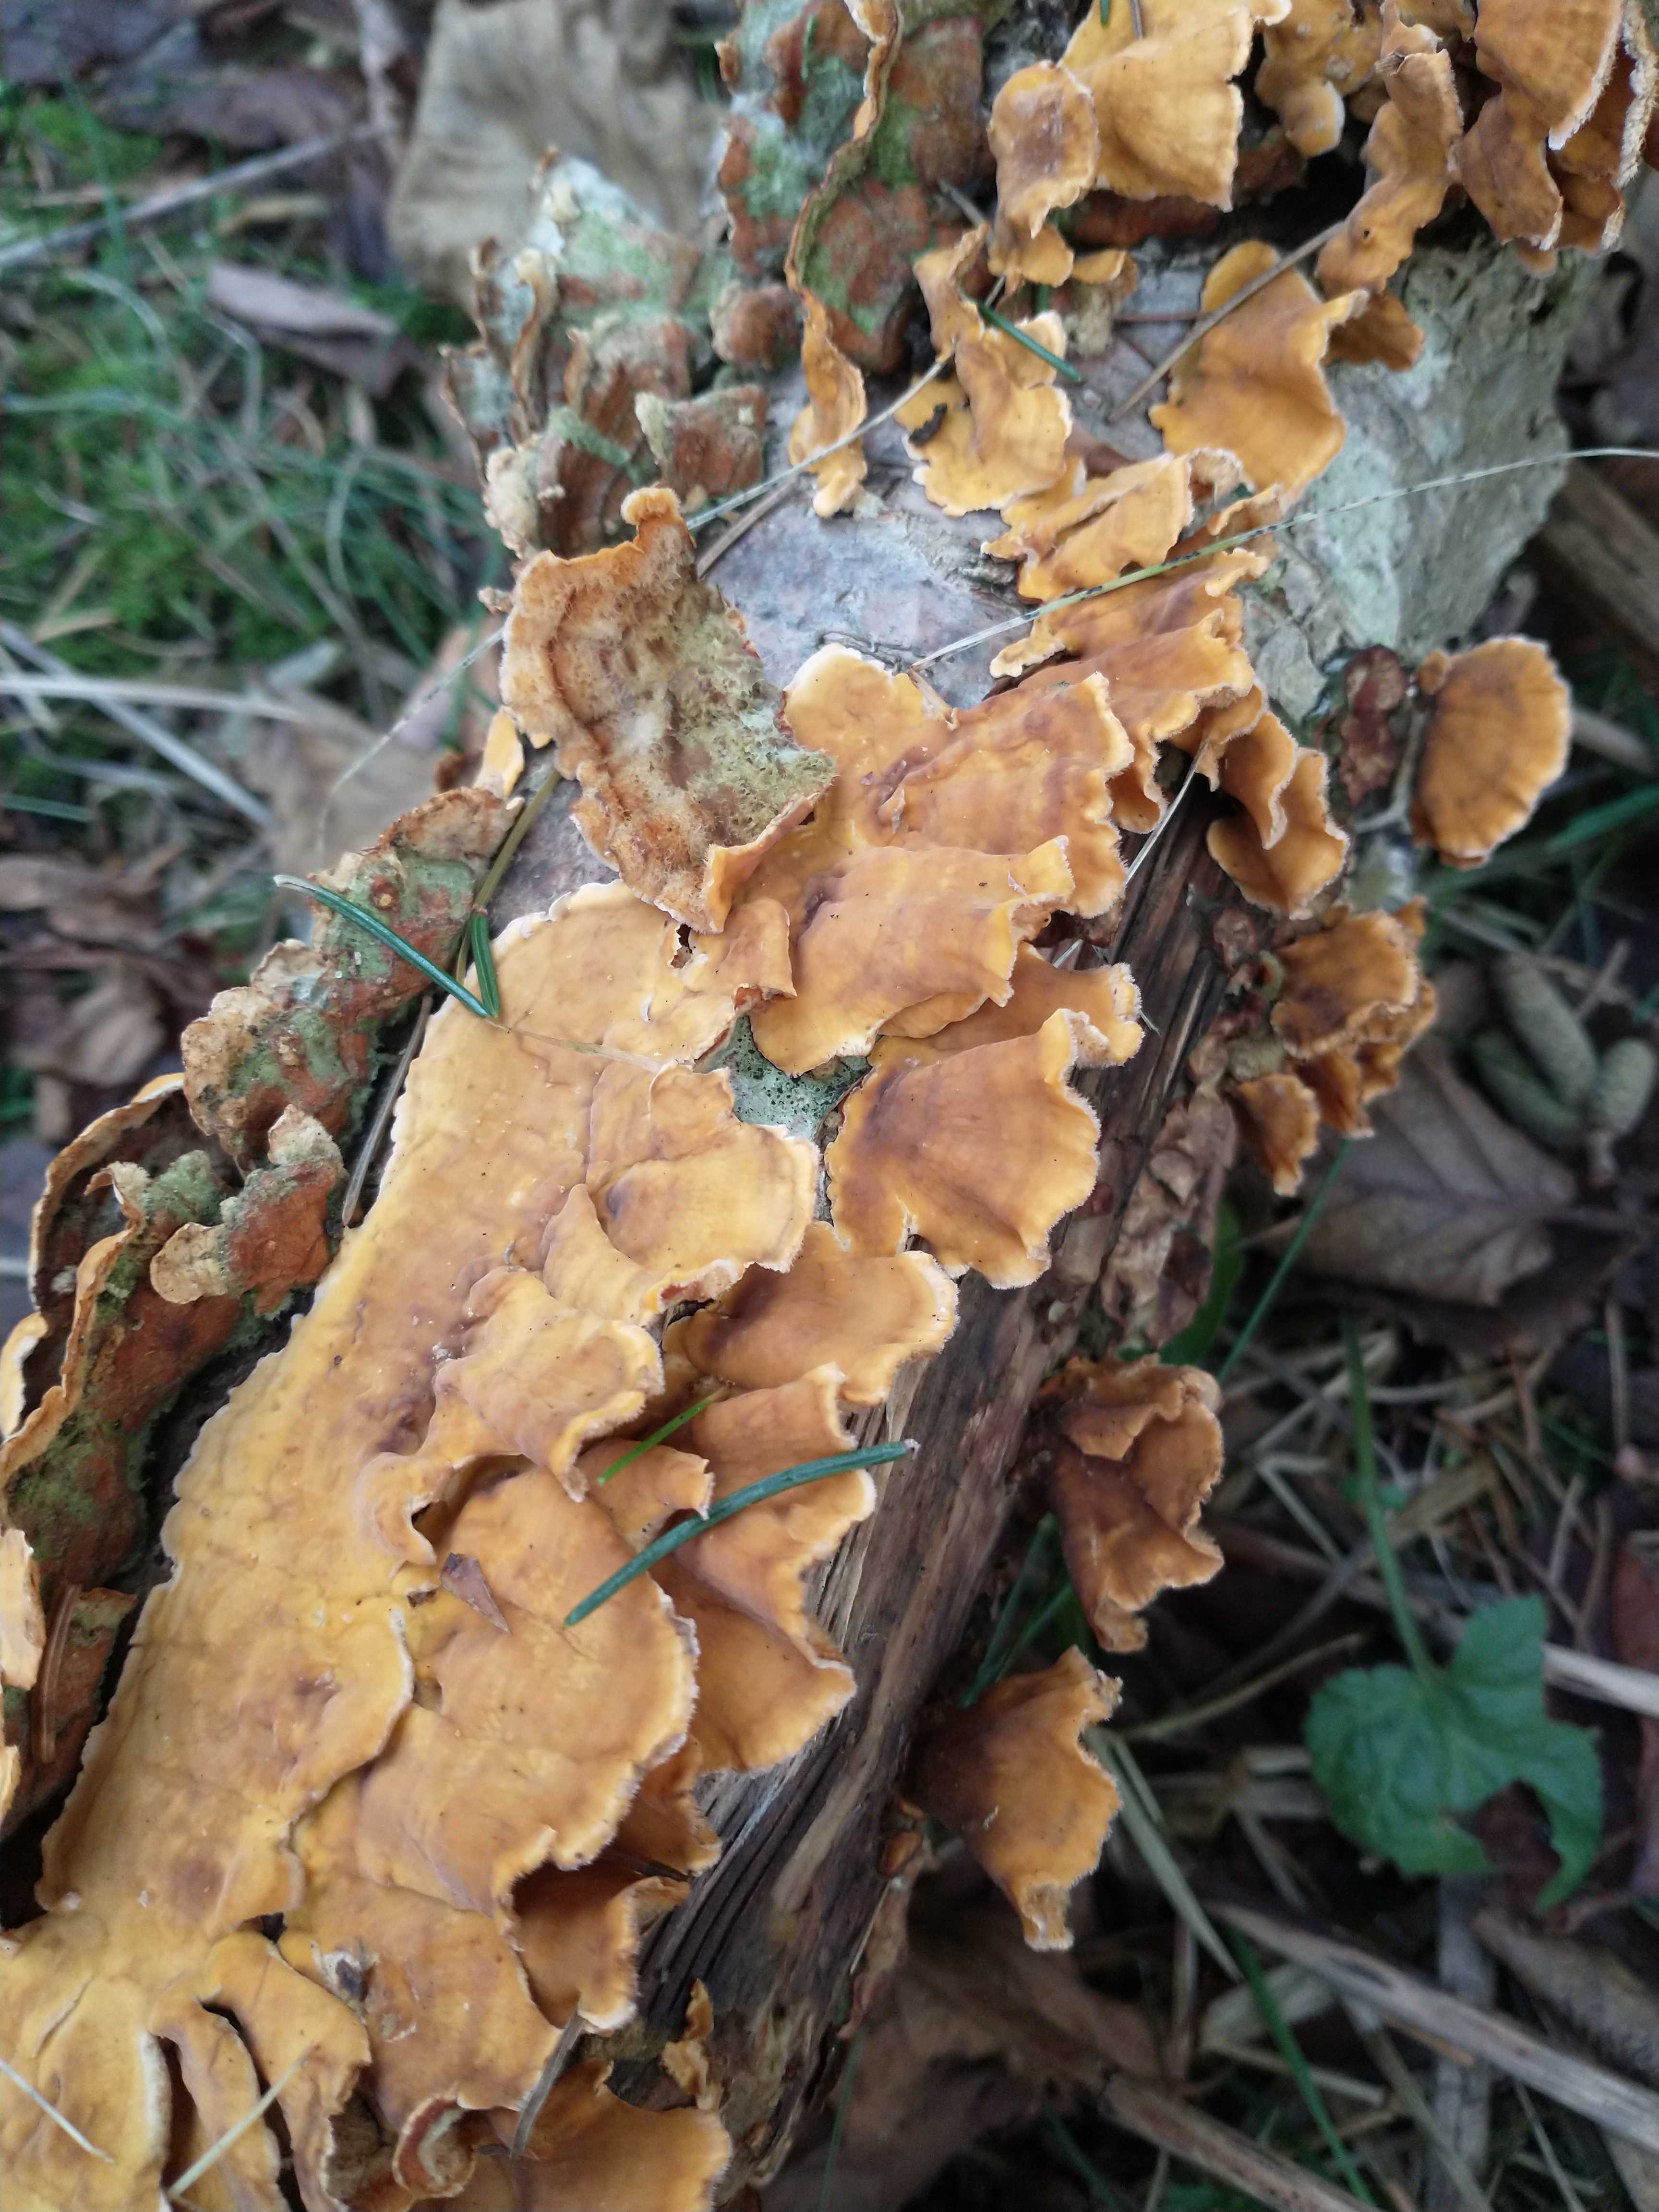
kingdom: Fungi
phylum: Basidiomycota
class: Agaricomycetes
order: Russulales
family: Stereaceae
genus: Stereum
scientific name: Stereum hirsutum
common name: håret lædersvamp
